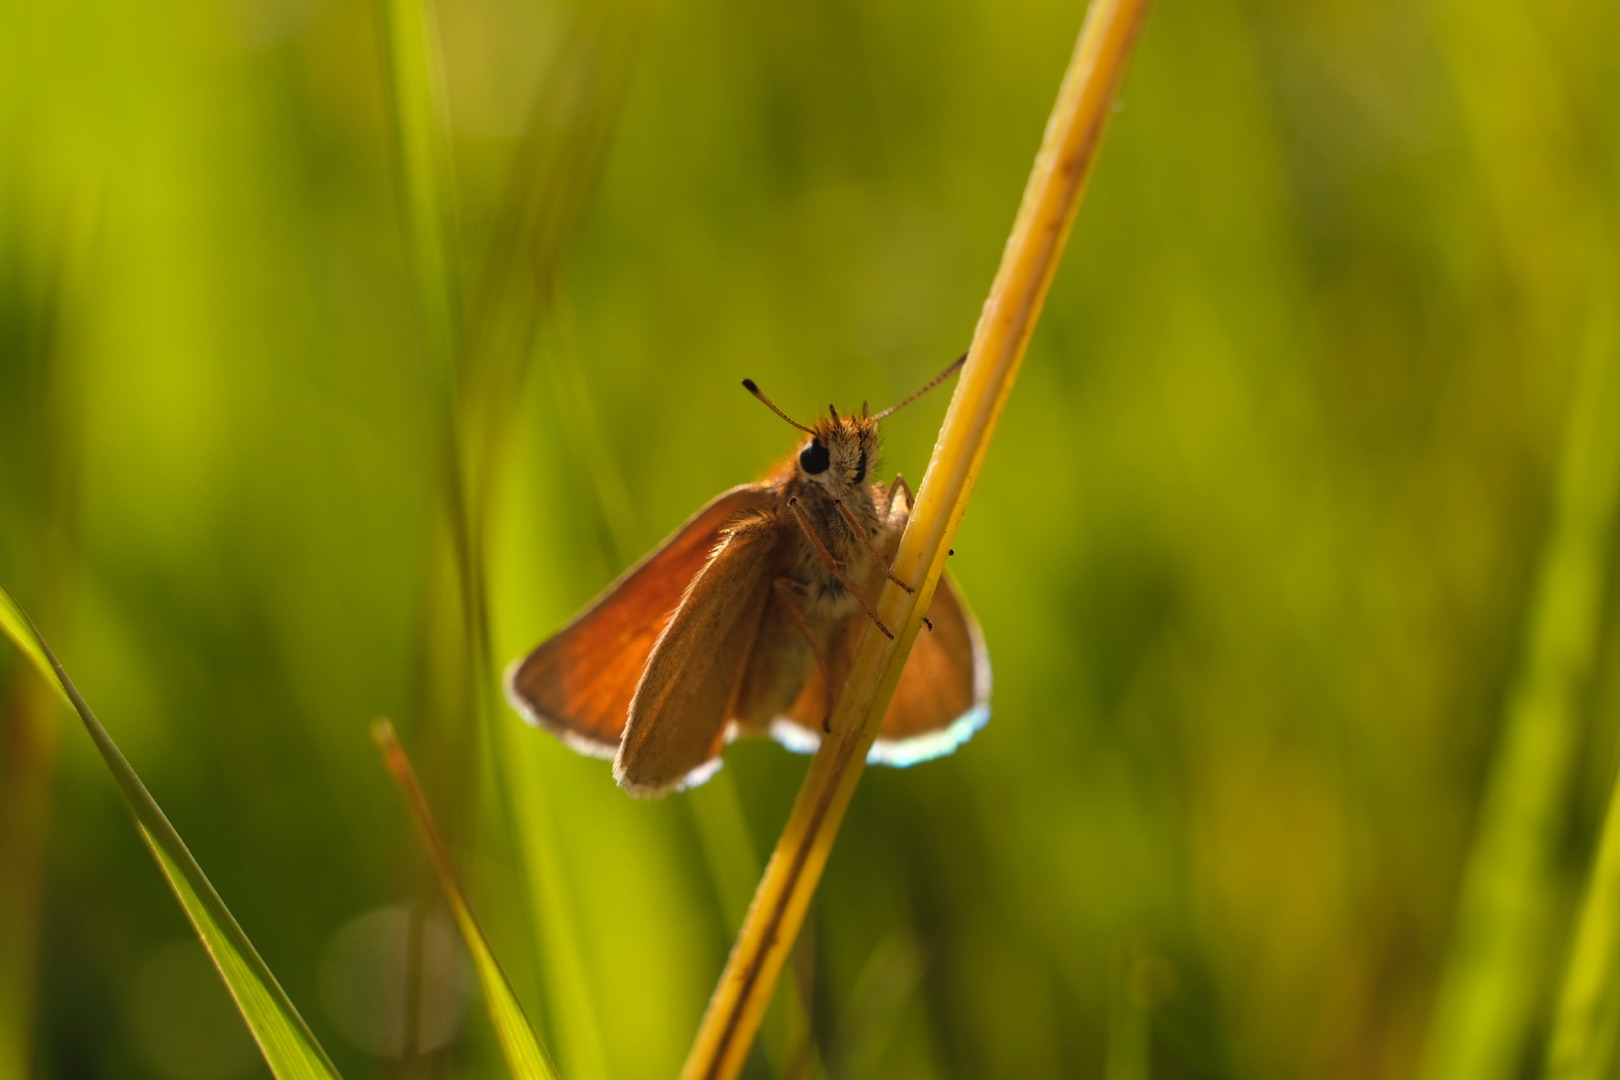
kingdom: Animalia
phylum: Arthropoda
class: Insecta
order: Lepidoptera
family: Hesperiidae
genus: Thymelicus
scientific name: Thymelicus lineola
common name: Stregbredpande
